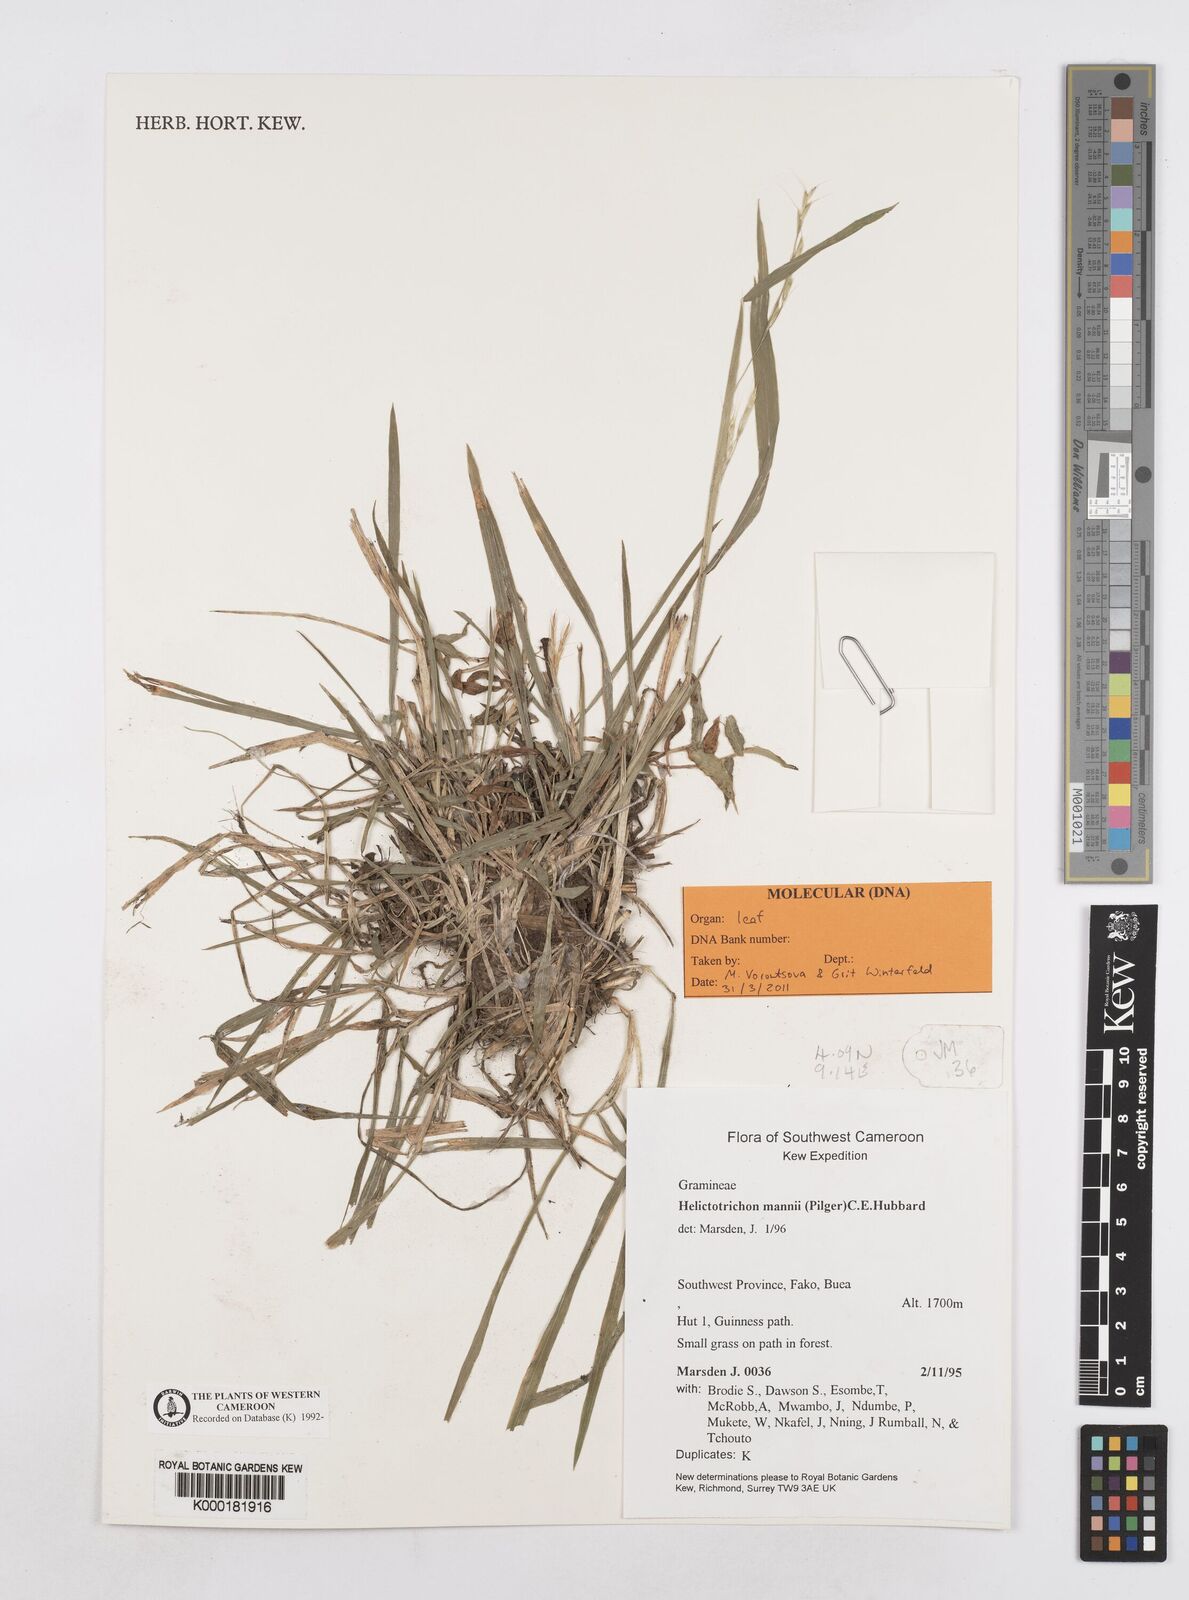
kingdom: Plantae
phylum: Tracheophyta
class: Liliopsida
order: Poales
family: Poaceae
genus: Trisetopsis
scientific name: Trisetopsis mannii
